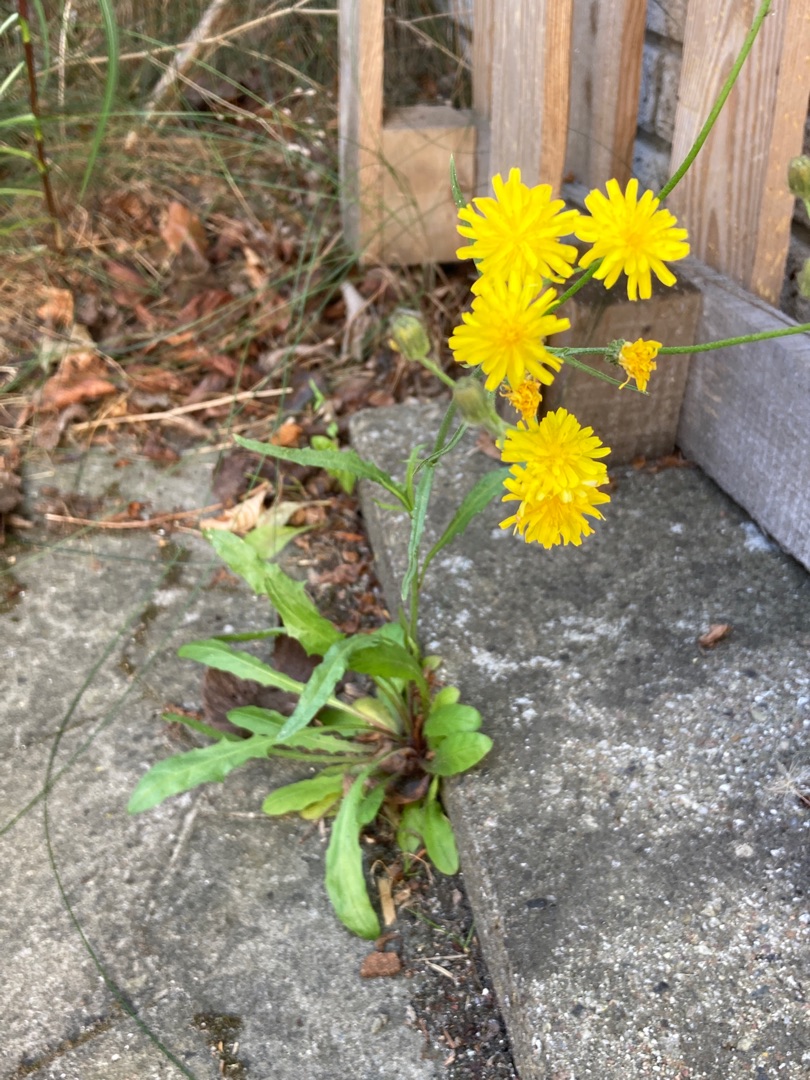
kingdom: Plantae
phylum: Tracheophyta
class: Magnoliopsida
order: Asterales
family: Asteraceae
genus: Crepis
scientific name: Crepis capillaris
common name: Grøn høgeskæg
